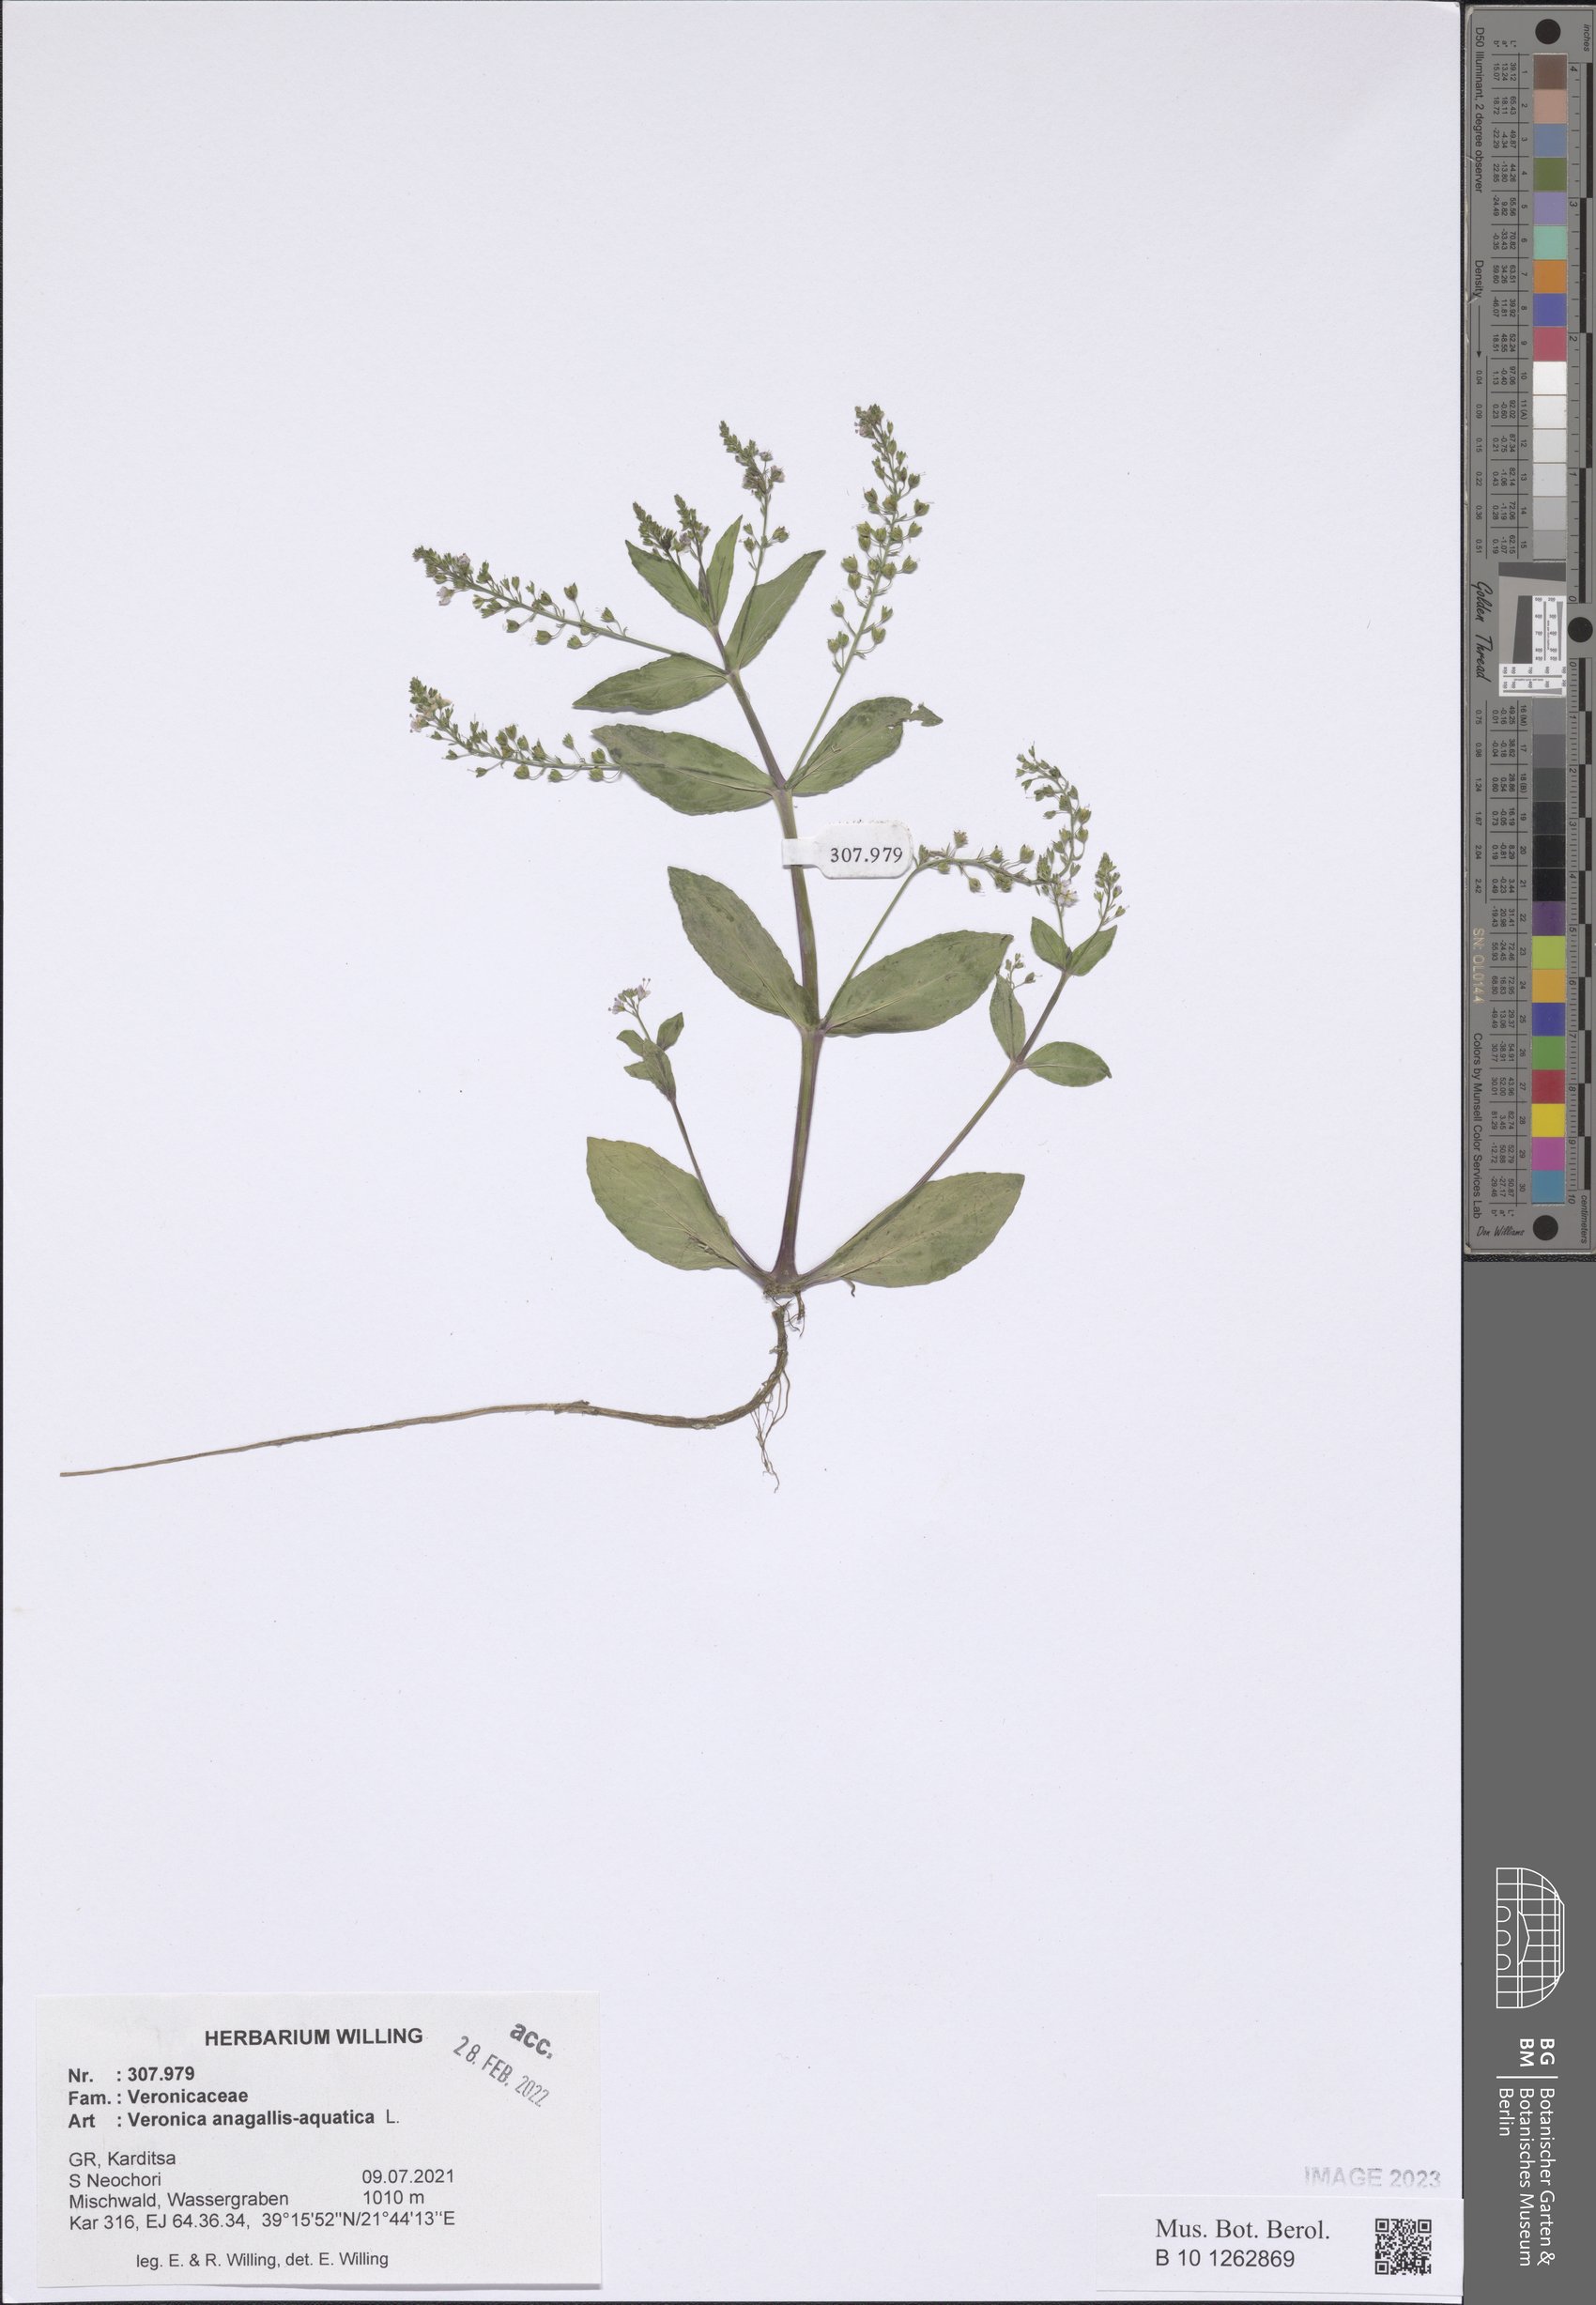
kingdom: Plantae
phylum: Tracheophyta
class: Magnoliopsida
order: Lamiales
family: Plantaginaceae
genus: Veronica
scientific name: Veronica anagallis-aquatica
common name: Water speedwell
